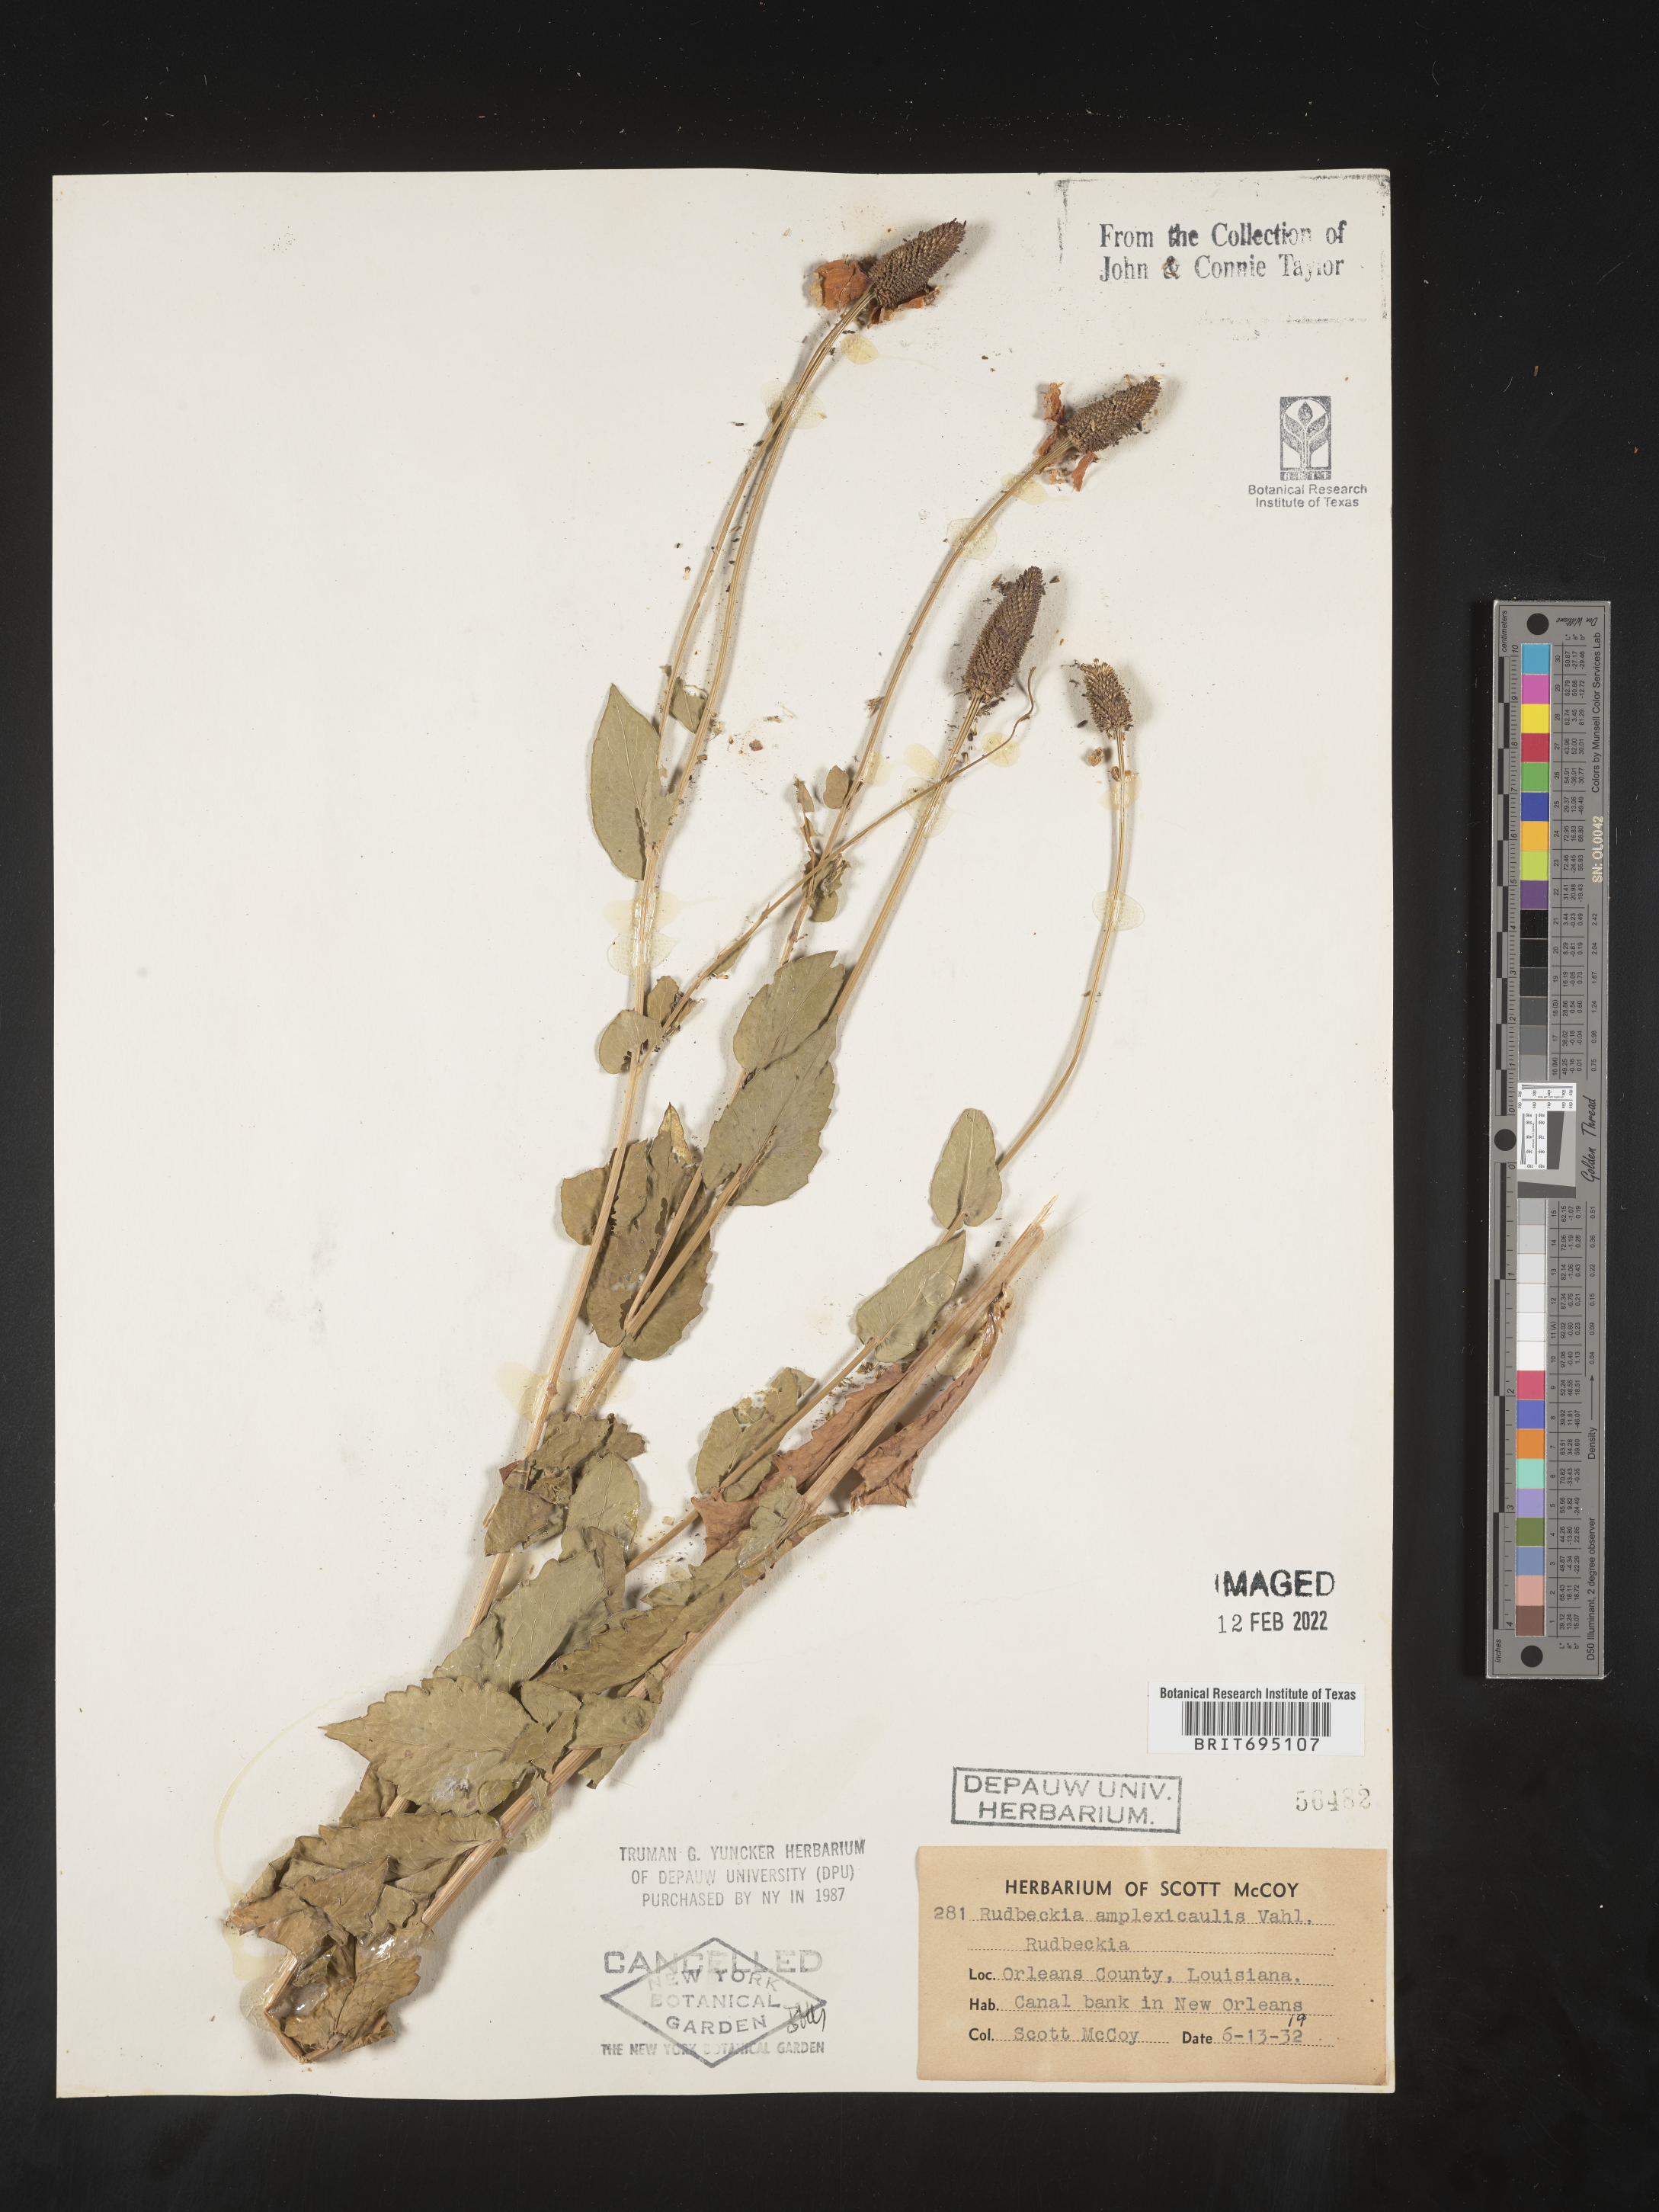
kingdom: Plantae
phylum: Tracheophyta
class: Magnoliopsida
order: Asterales
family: Asteraceae
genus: Rudbeckia
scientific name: Rudbeckia amplexicaulis
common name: Clasping-leaf coneflower
